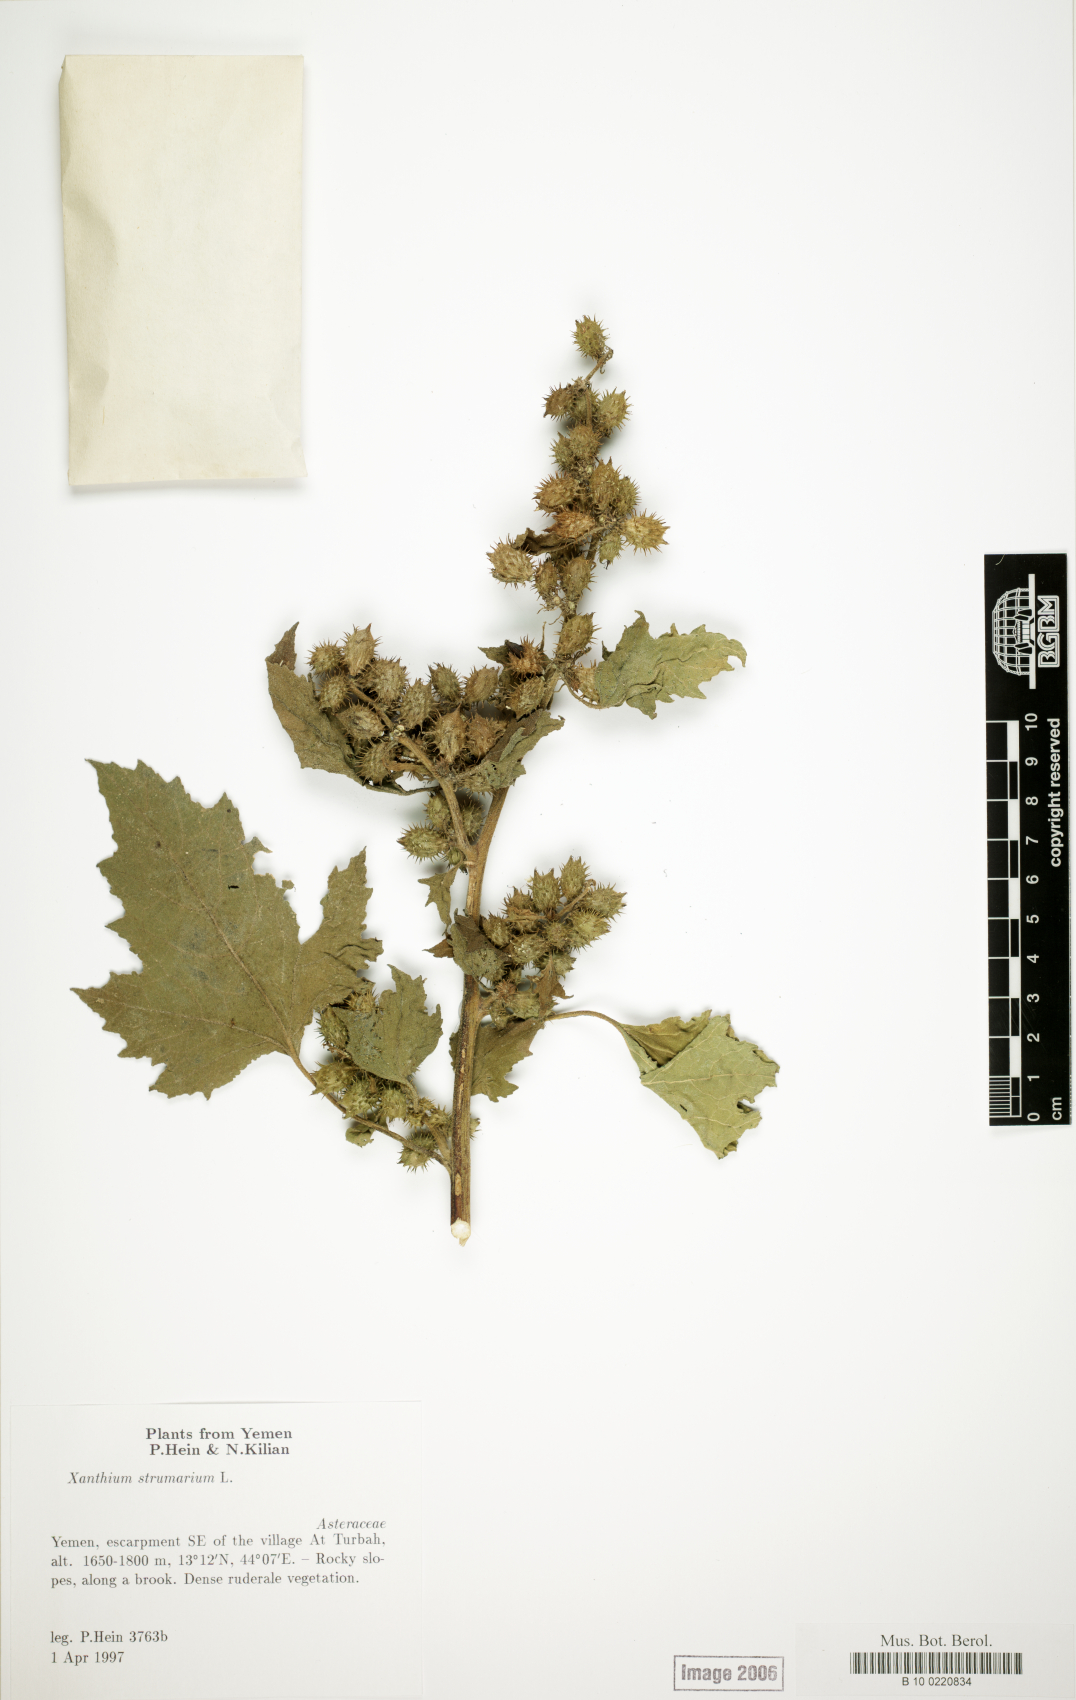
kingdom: Plantae
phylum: Tracheophyta
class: Magnoliopsida
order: Asterales
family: Asteraceae
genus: Xanthium
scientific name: Xanthium strumarium
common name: Rough cocklebur
